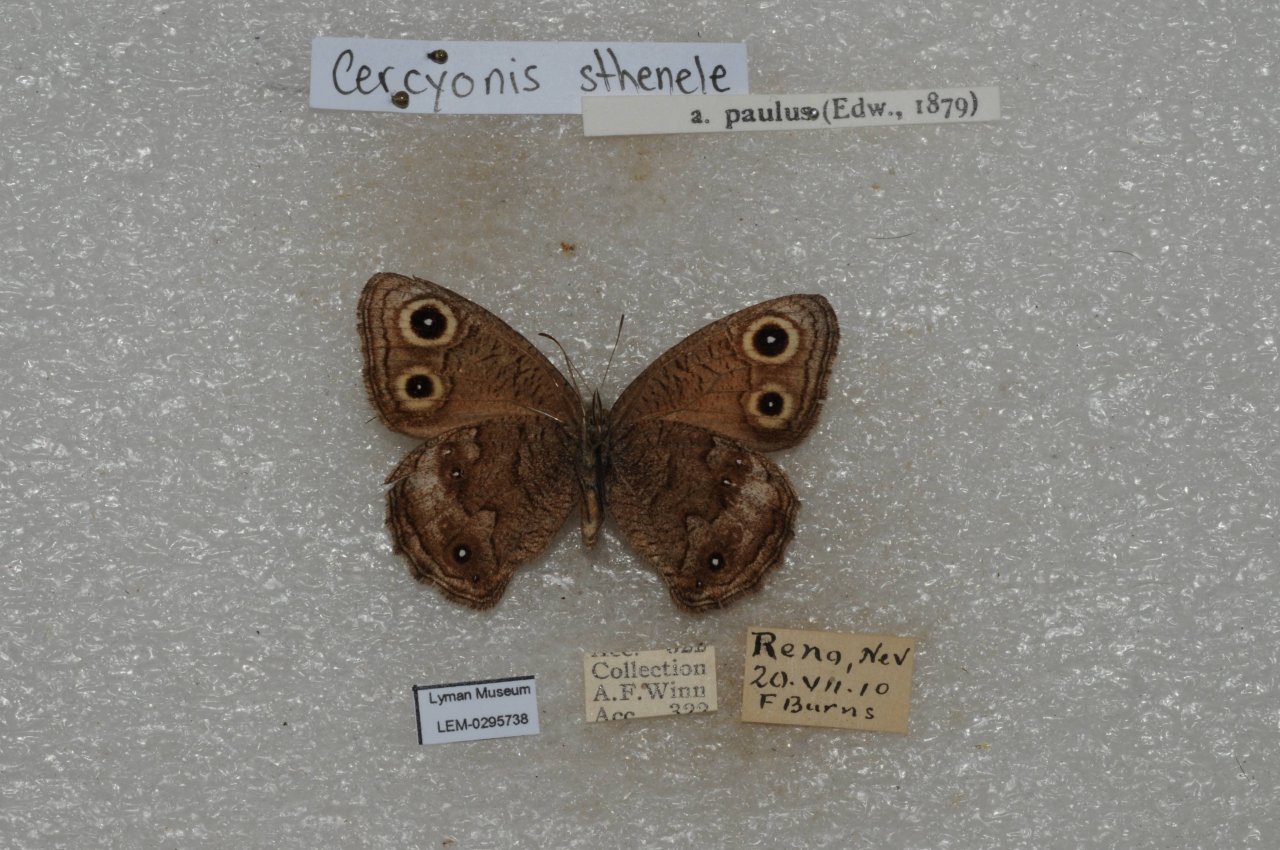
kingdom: Animalia
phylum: Arthropoda
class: Insecta
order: Lepidoptera
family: Nymphalidae
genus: Cercyonis
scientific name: Cercyonis sthenele
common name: Great Basin Wood-Nymph
